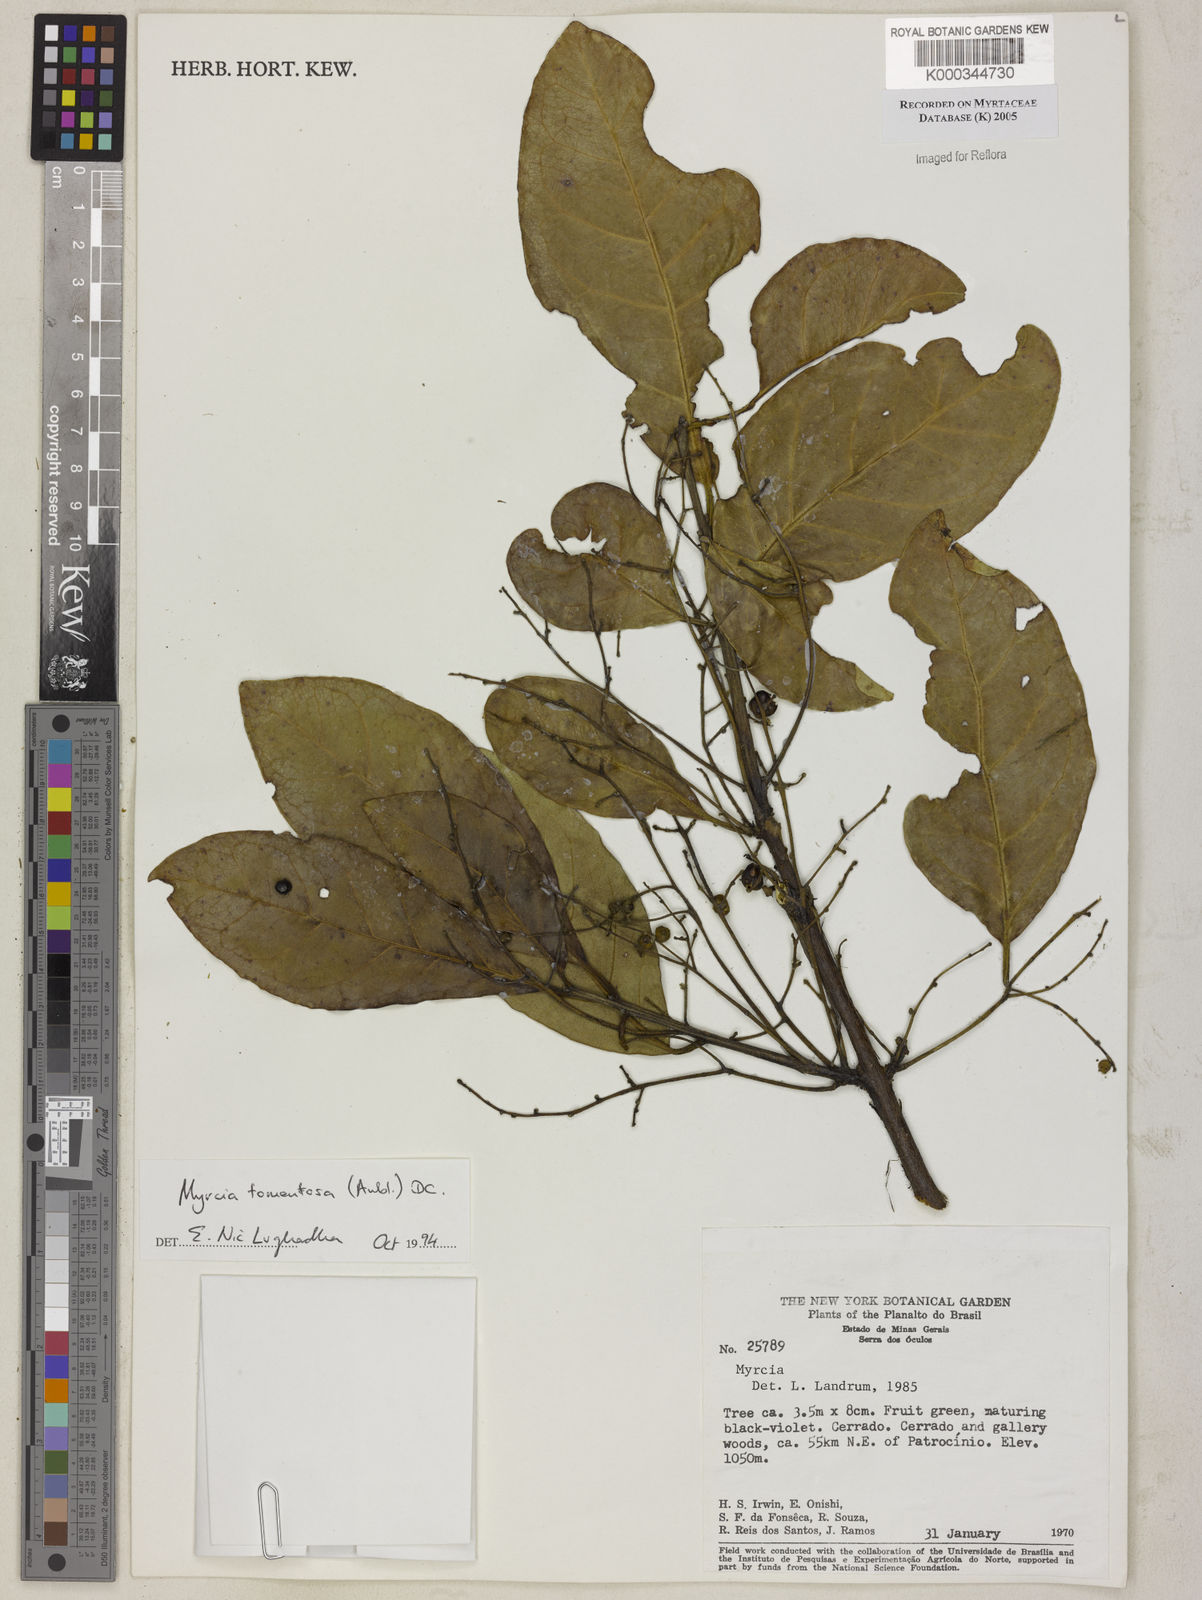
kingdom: Plantae
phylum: Tracheophyta
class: Magnoliopsida
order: Myrtales
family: Myrtaceae
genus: Myrcia
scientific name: Myrcia tomentosa
